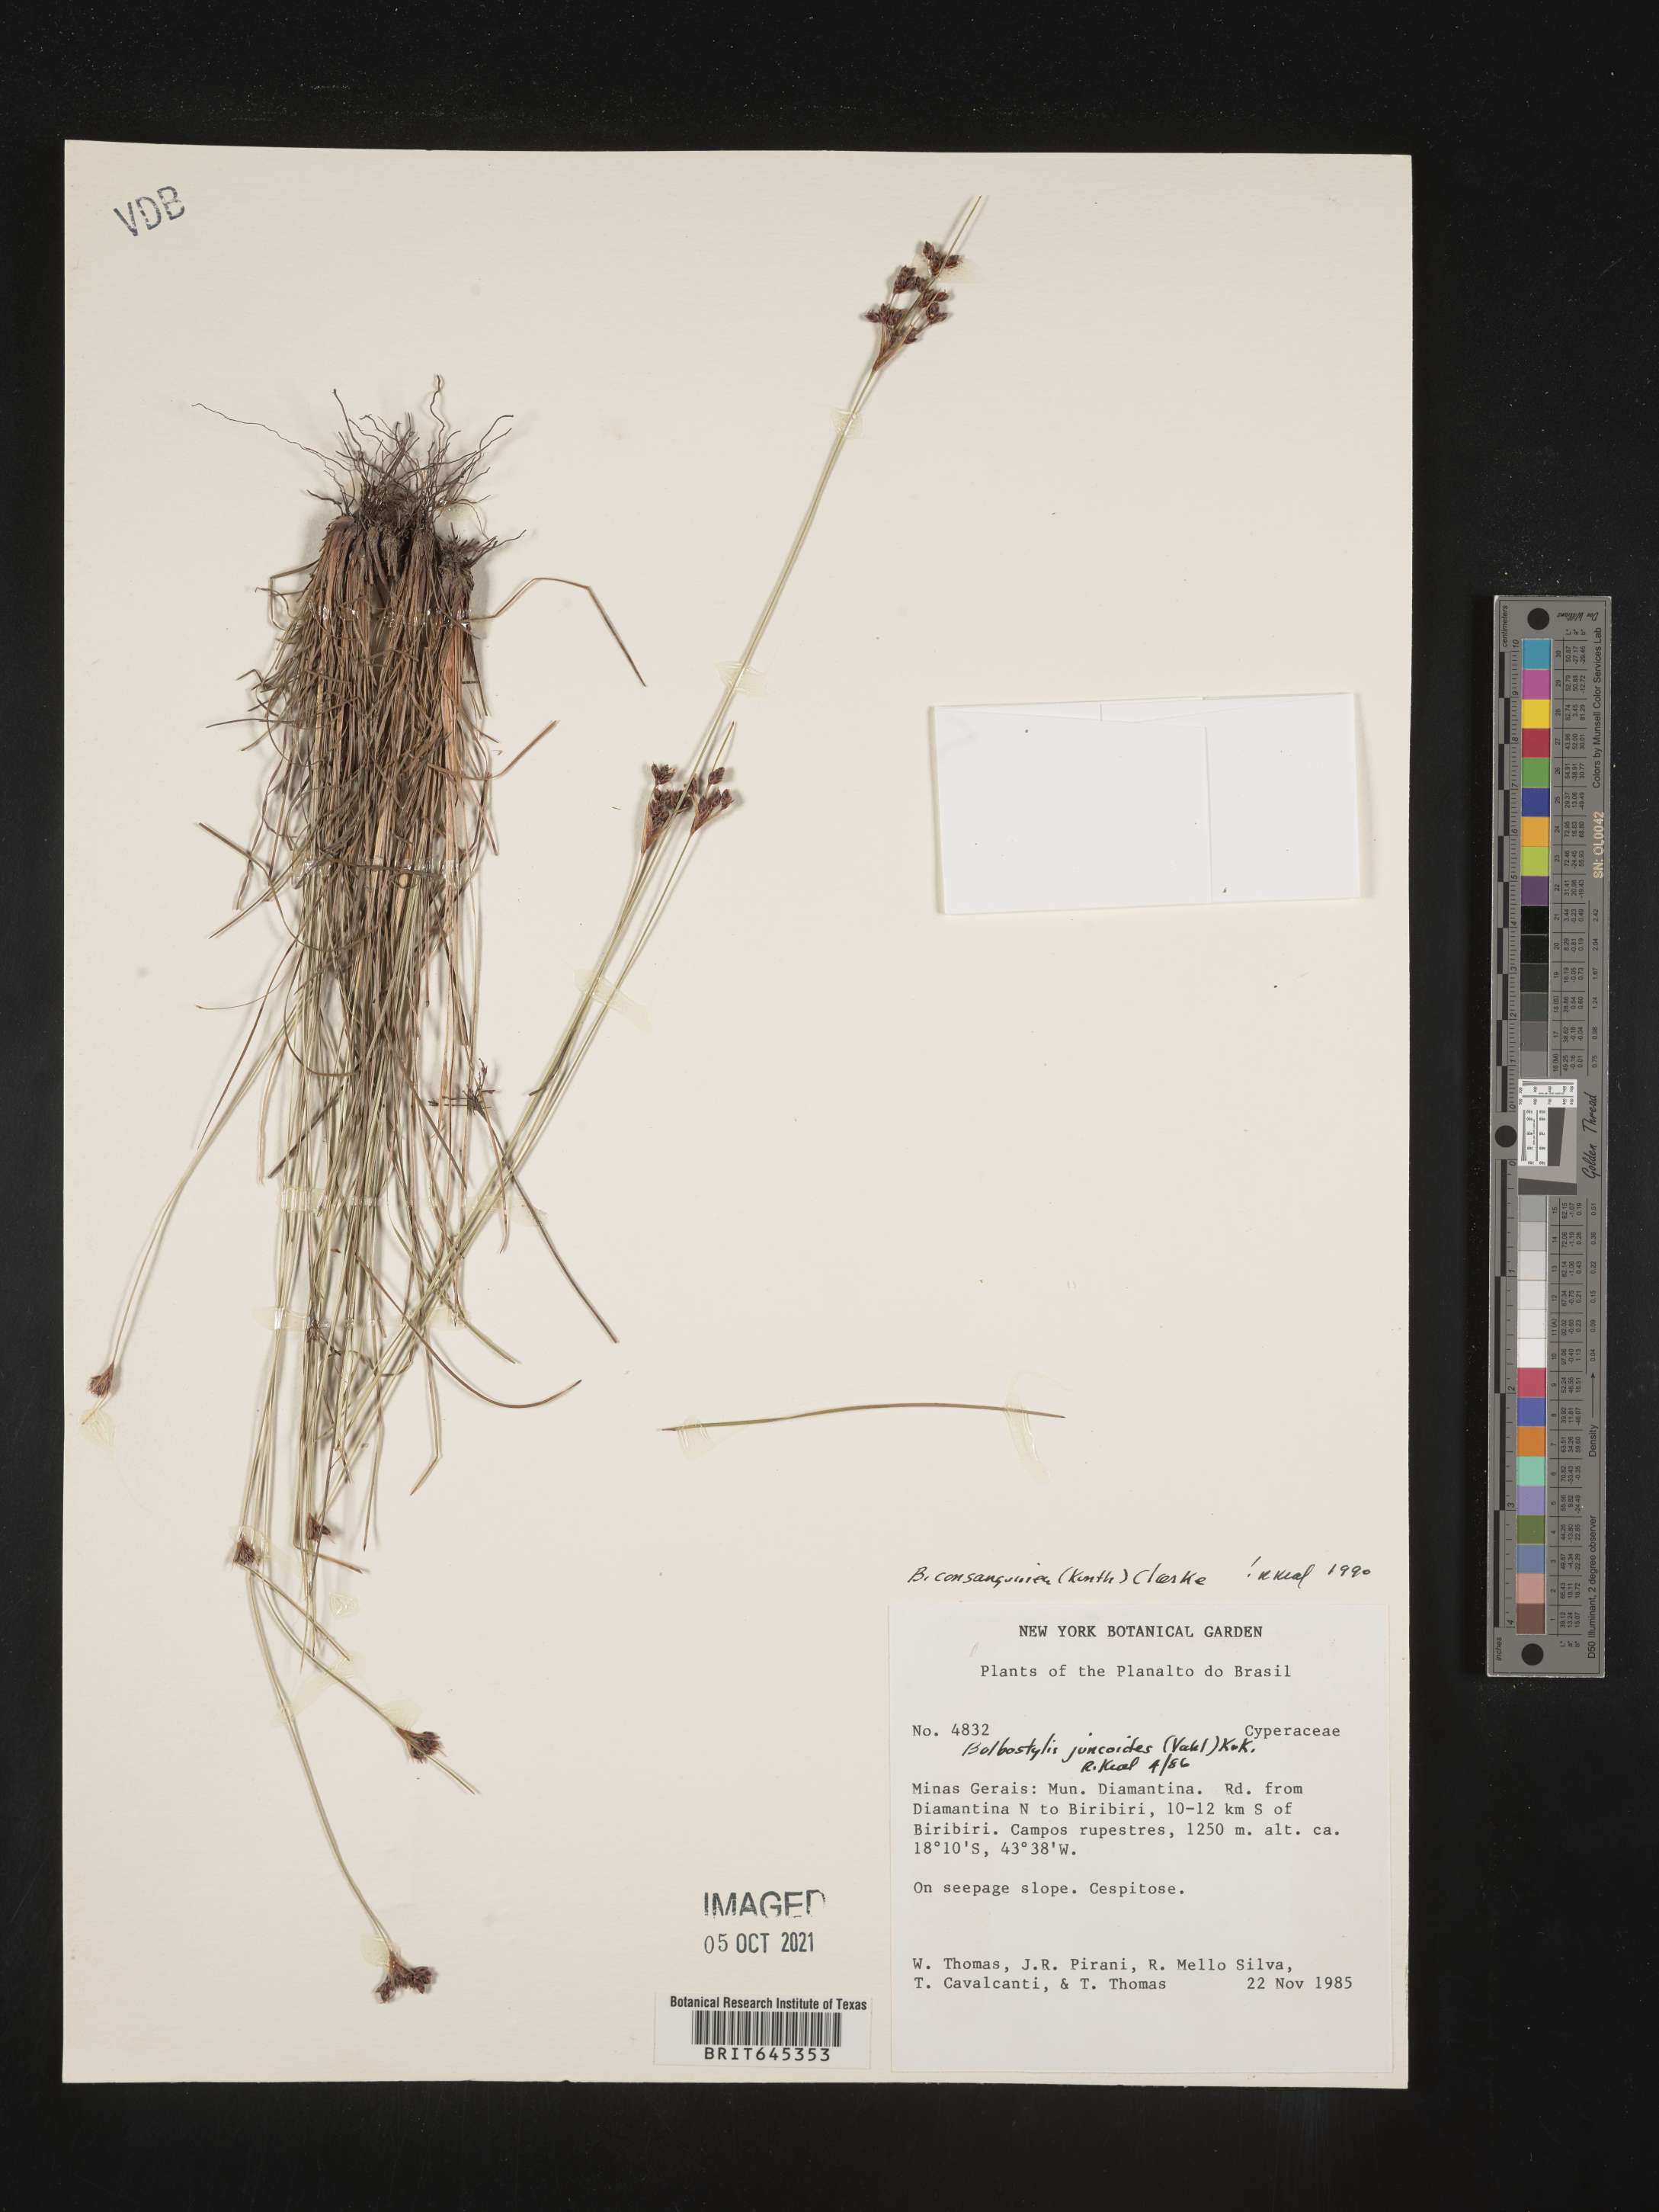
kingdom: Plantae
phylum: Tracheophyta
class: Liliopsida
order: Poales
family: Cyperaceae
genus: Bulbostylis
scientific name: Bulbostylis consanguinea
